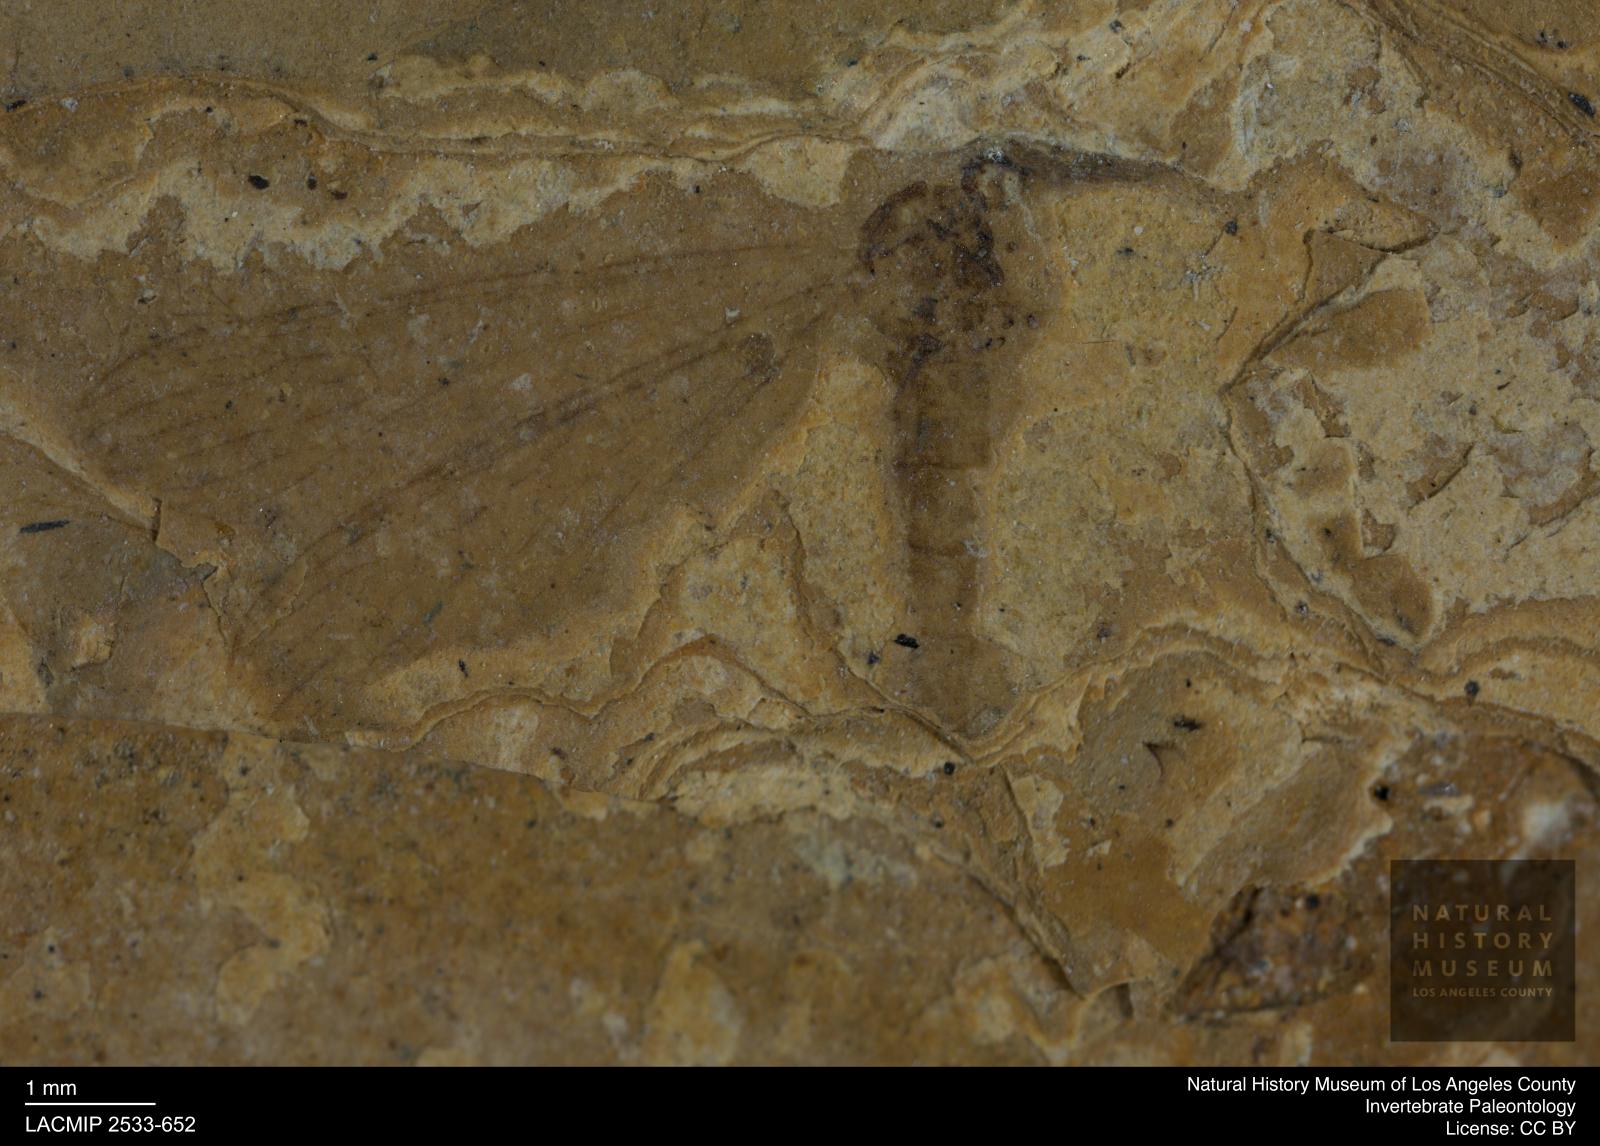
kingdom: Animalia
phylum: Arthropoda
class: Insecta
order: Diptera
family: Limoniidae
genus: Limnophila
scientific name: Limnophila veterana
